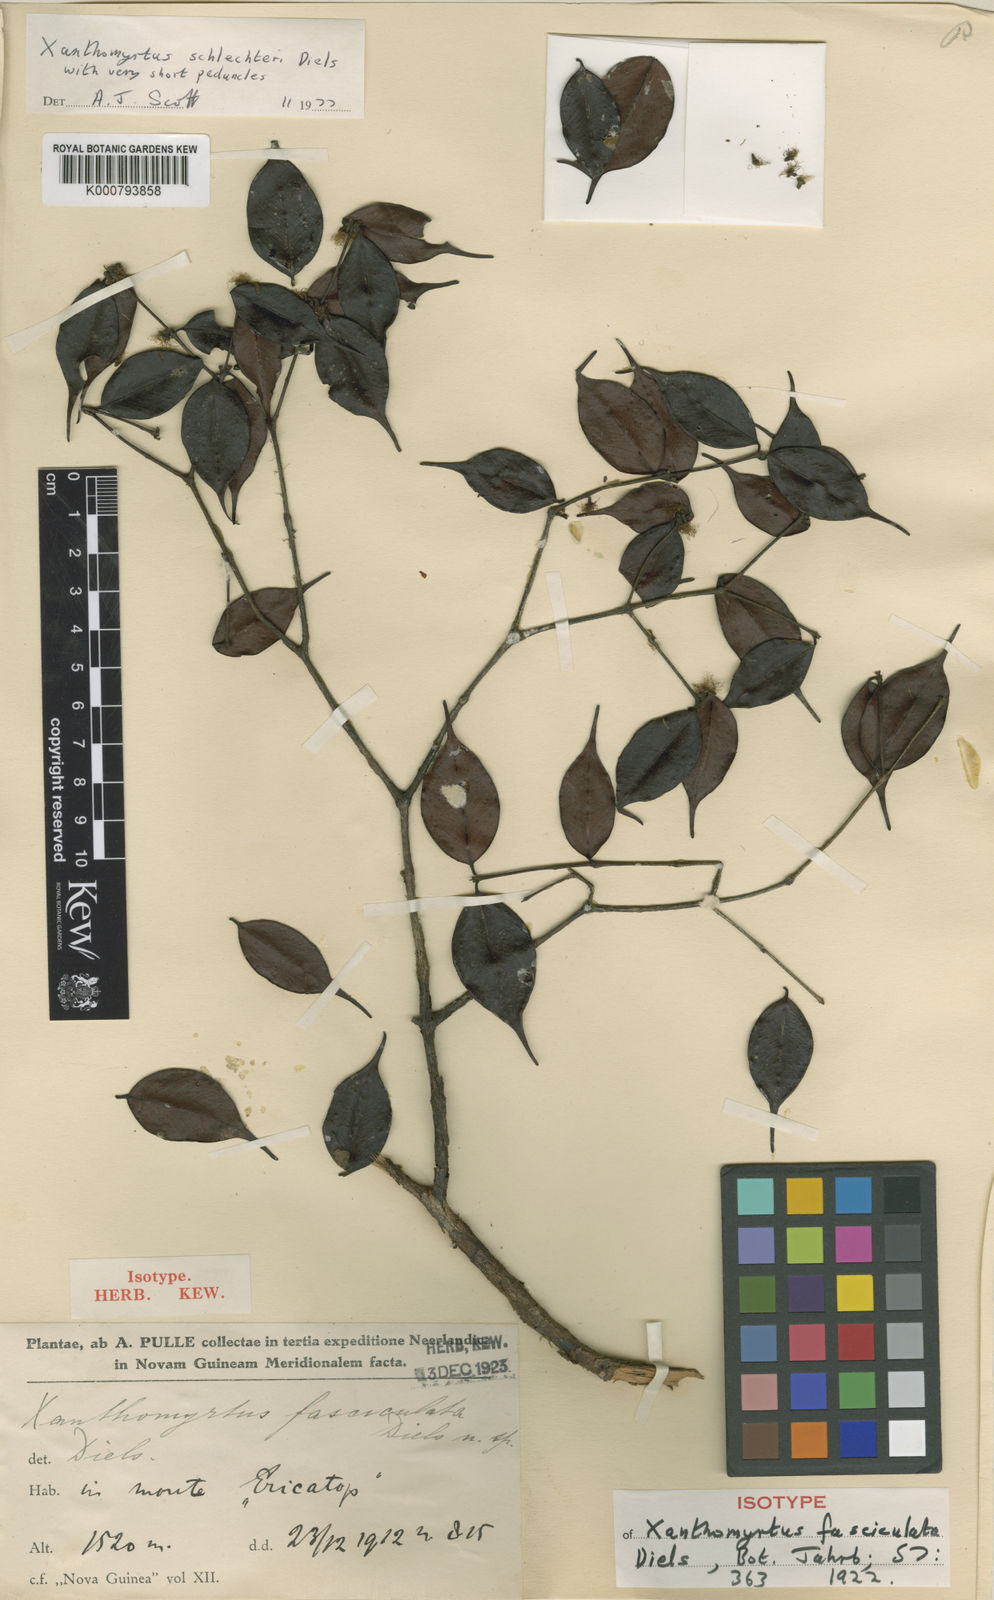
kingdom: Plantae
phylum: Tracheophyta
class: Magnoliopsida
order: Myrtales
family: Myrtaceae
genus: Xanthomyrtus
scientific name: Xanthomyrtus schlechteri
